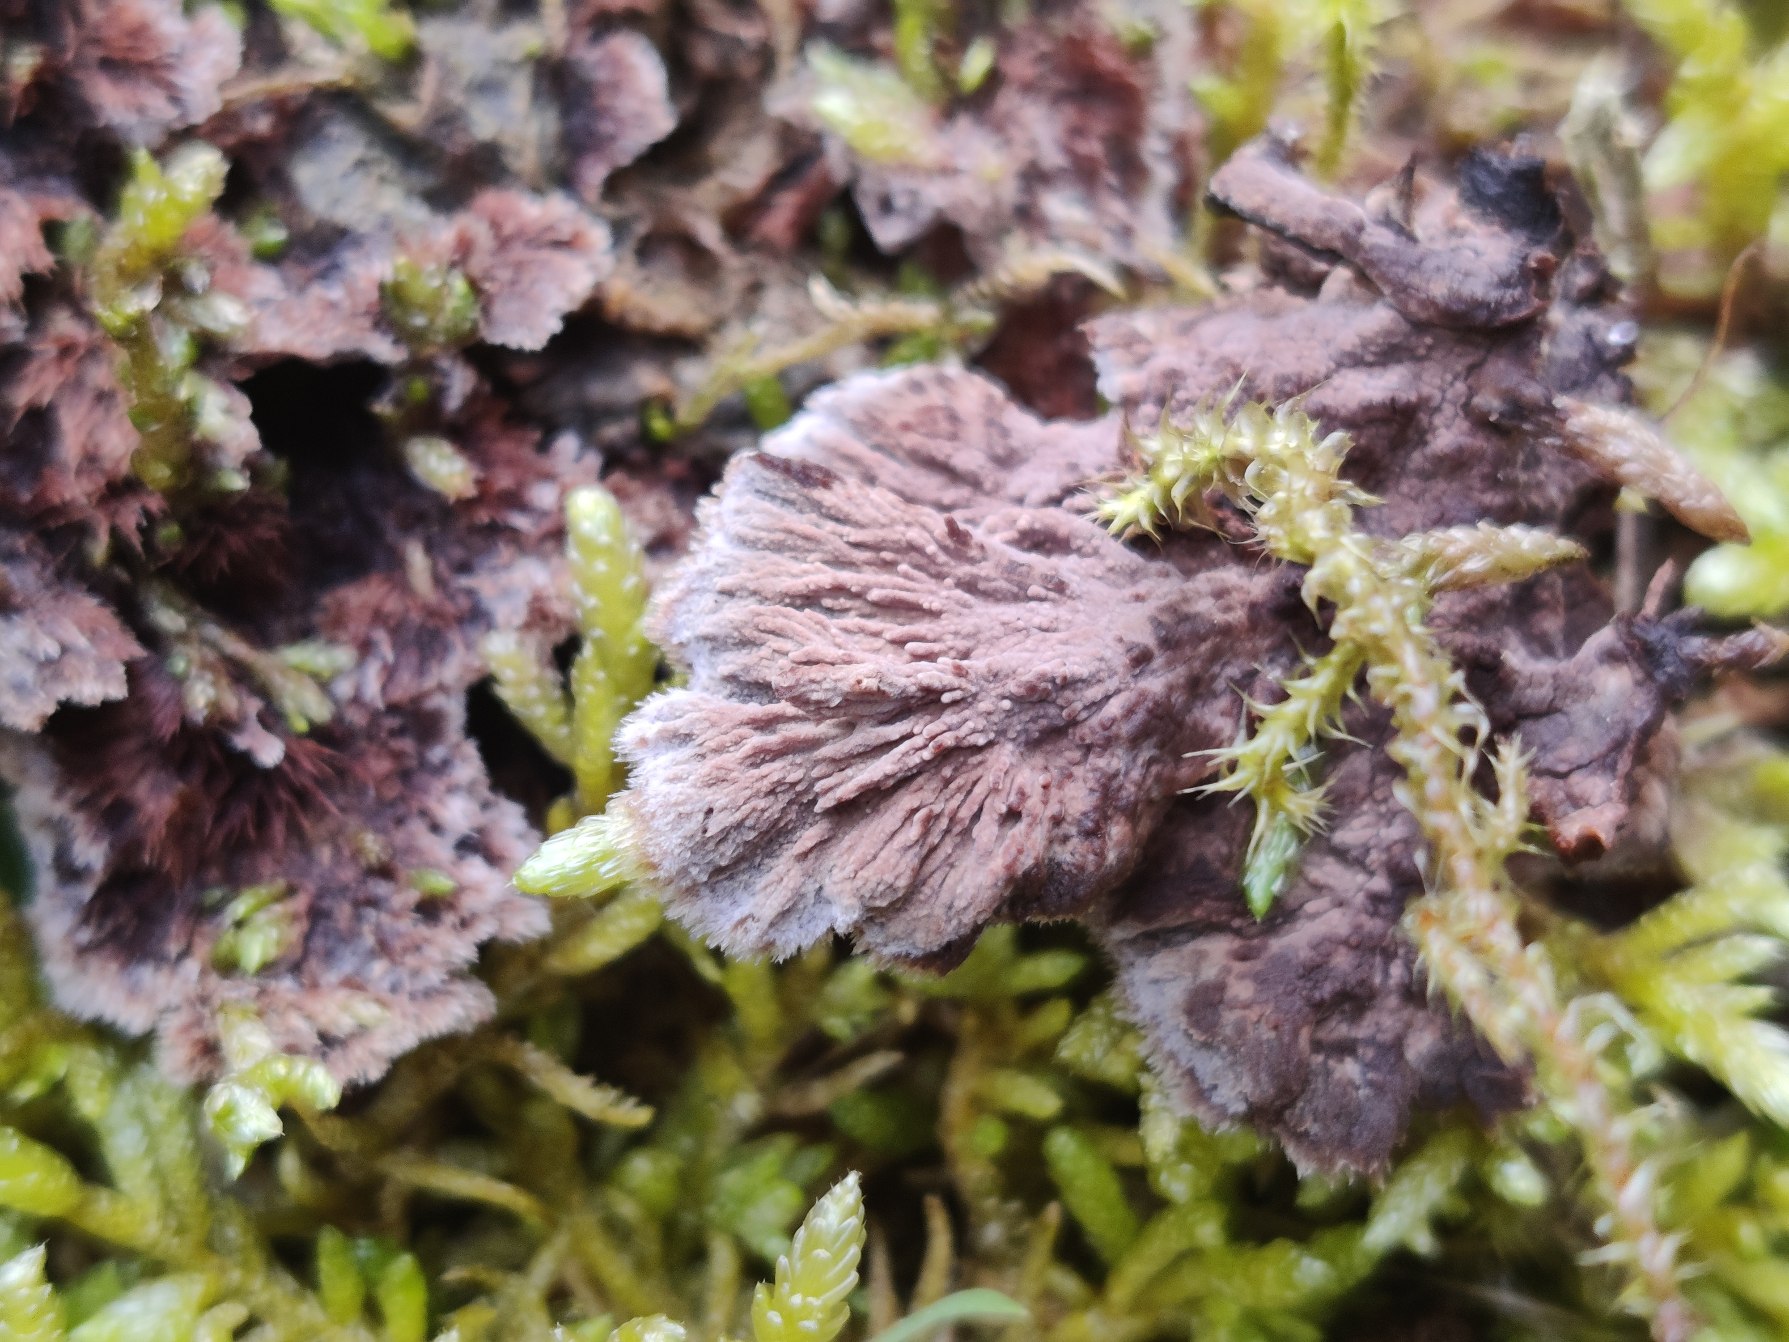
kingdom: Fungi
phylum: Basidiomycota
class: Agaricomycetes
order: Thelephorales
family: Thelephoraceae
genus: Thelephora
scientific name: Thelephora terrestris
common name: Fliget frynsesvamp
